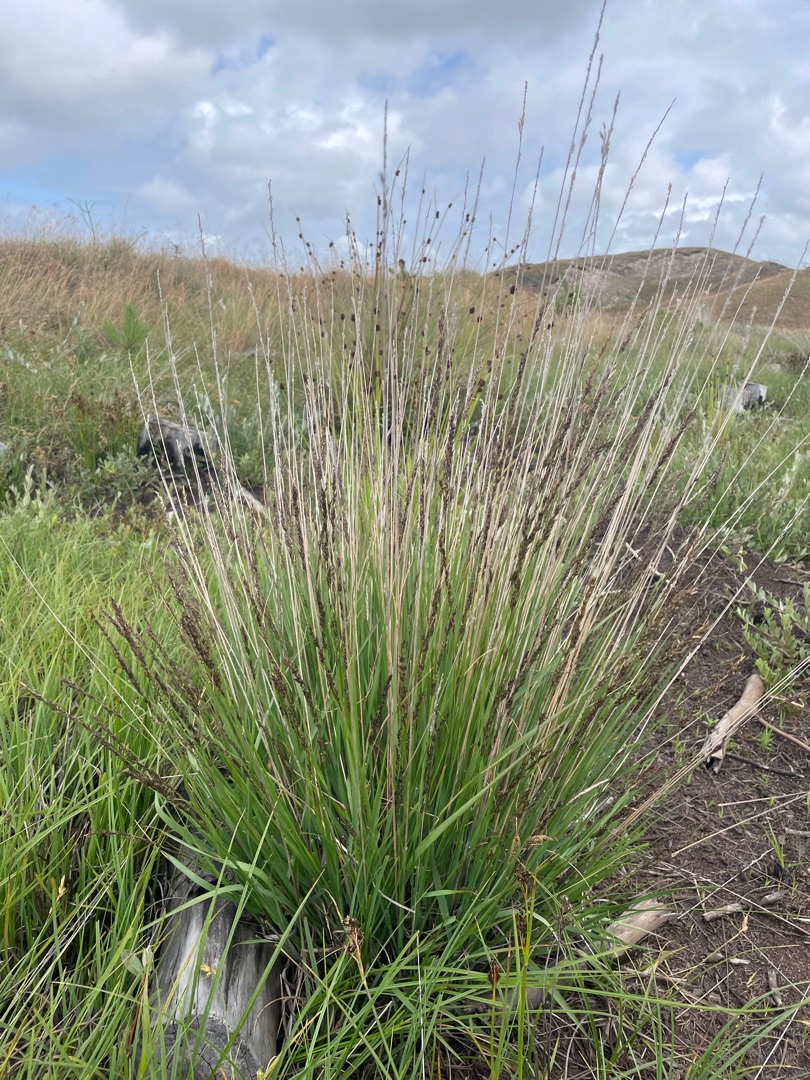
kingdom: Plantae
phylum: Tracheophyta
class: Liliopsida
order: Poales
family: Poaceae
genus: Molinia
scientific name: Molinia caerulea
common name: Blåtop
